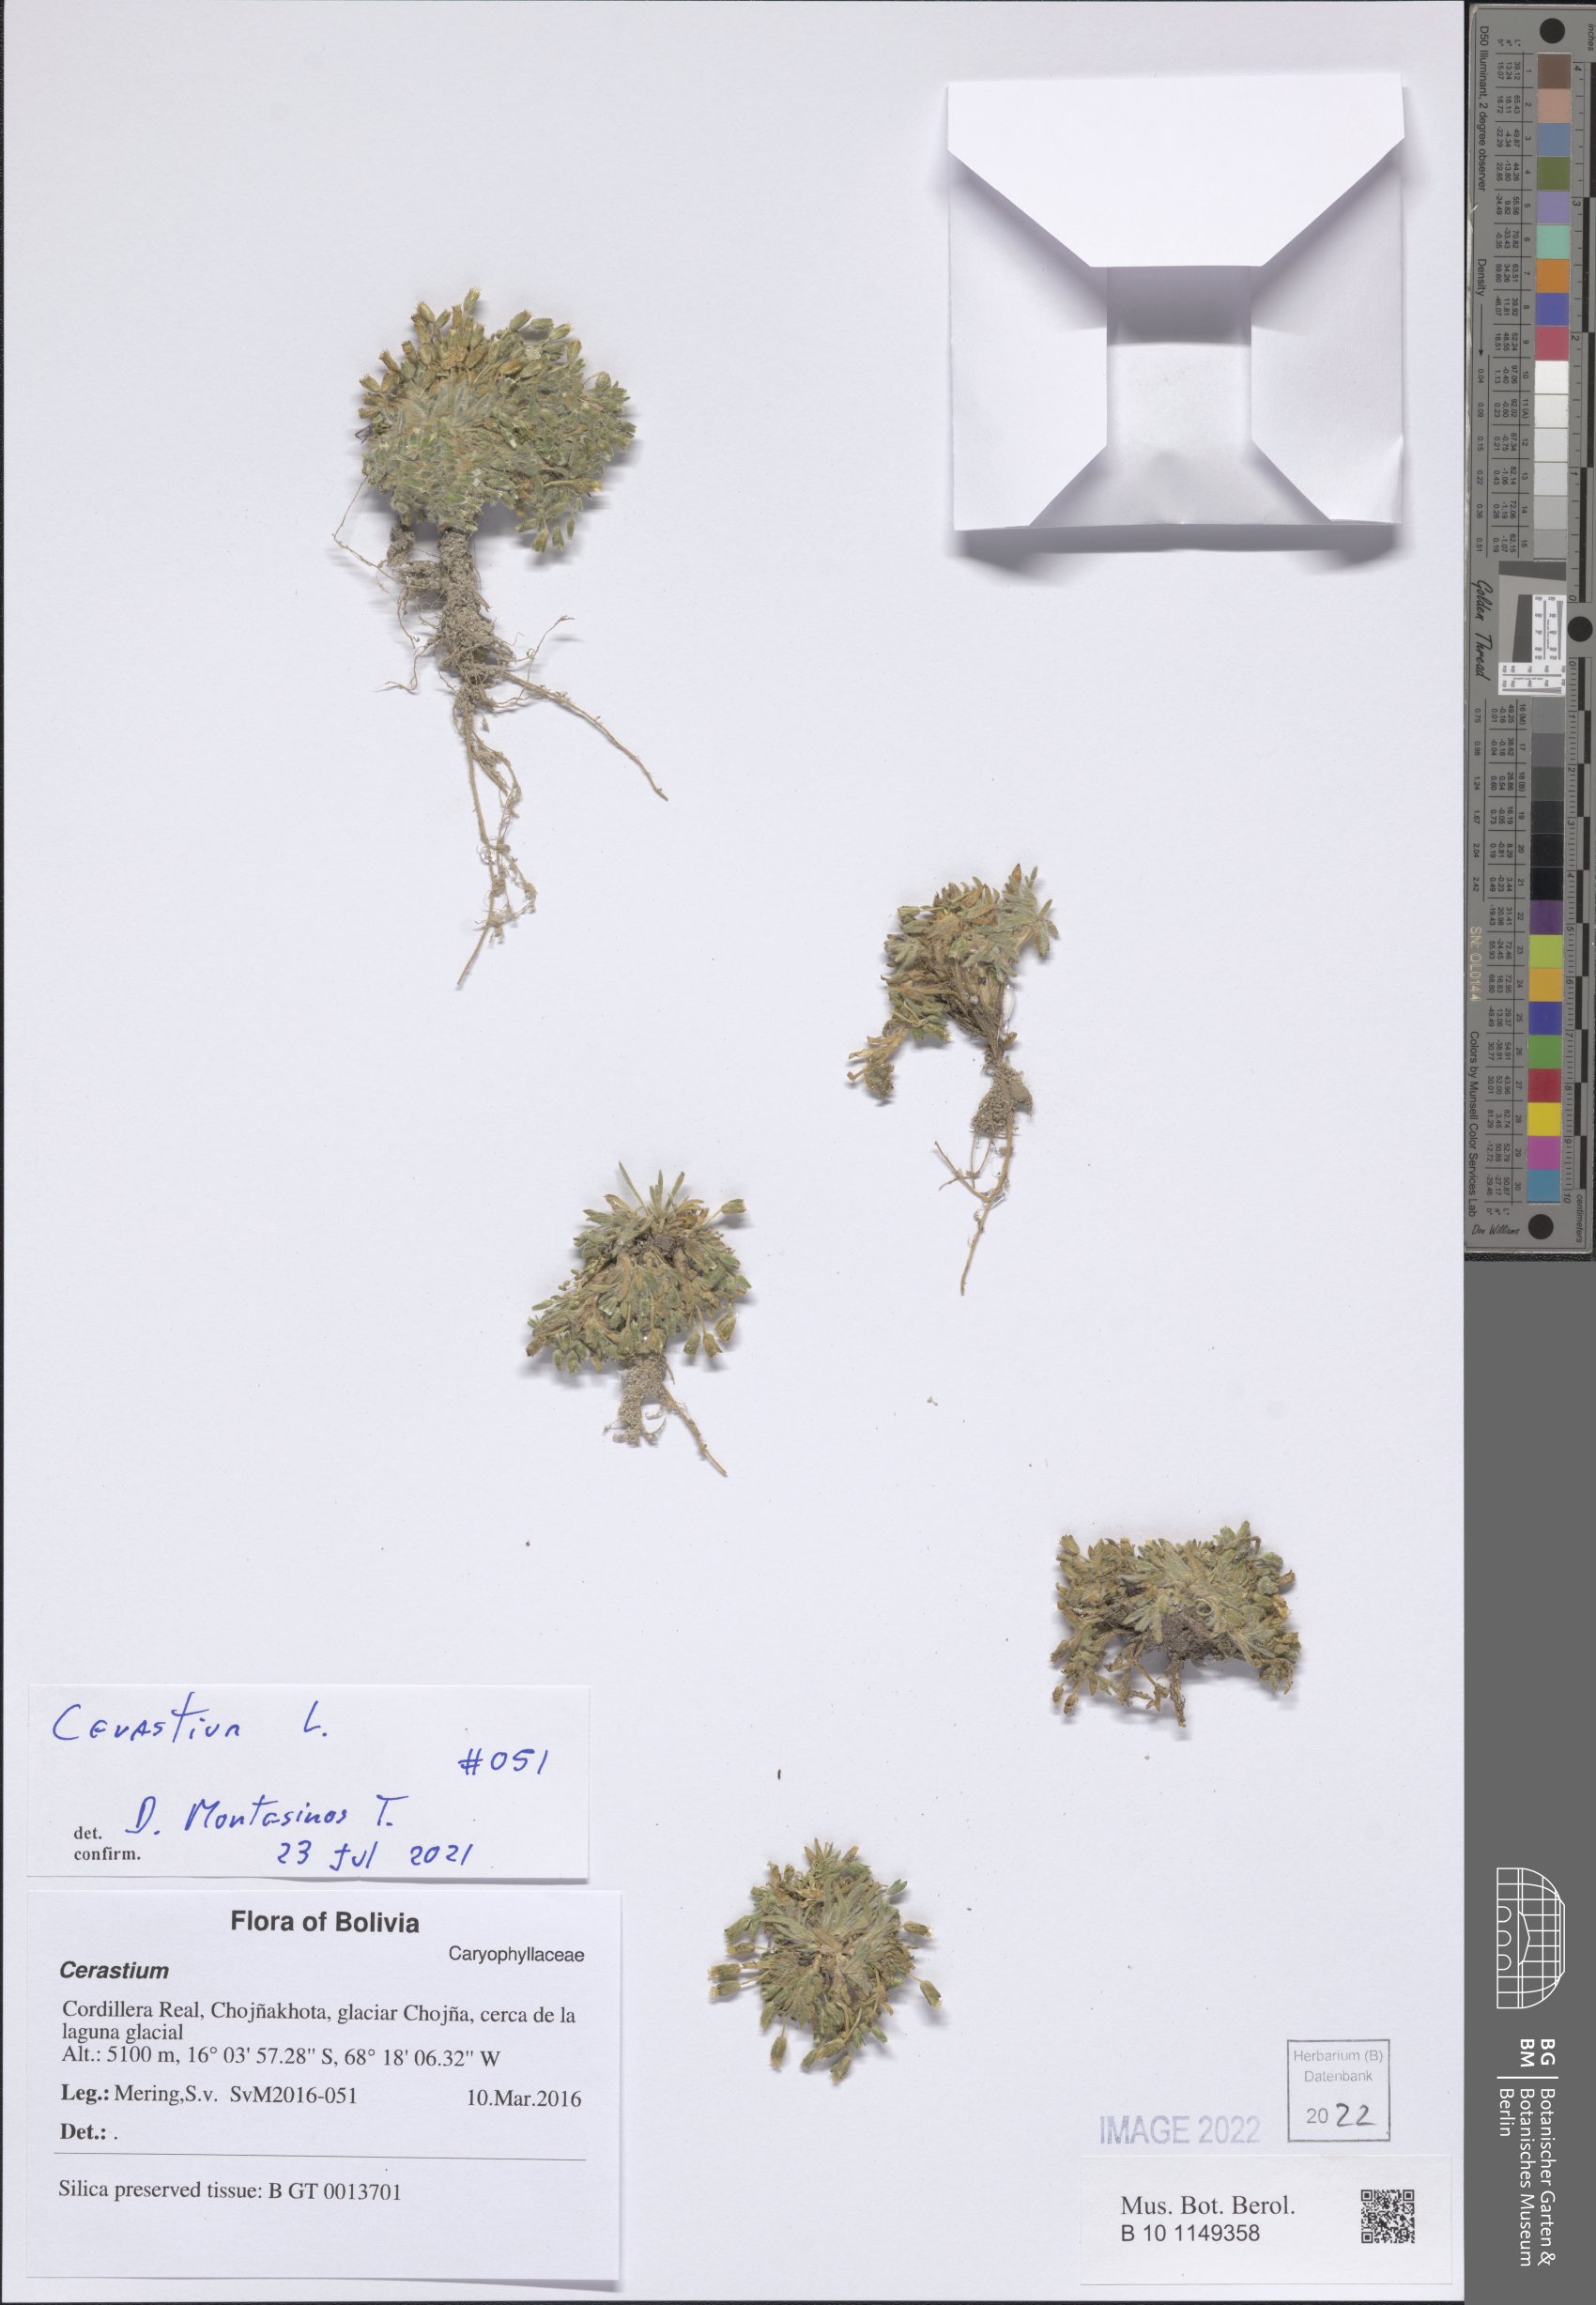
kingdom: Plantae
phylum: Tracheophyta
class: Magnoliopsida
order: Caryophyllales
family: Caryophyllaceae
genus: Cerastium
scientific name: Cerastium
